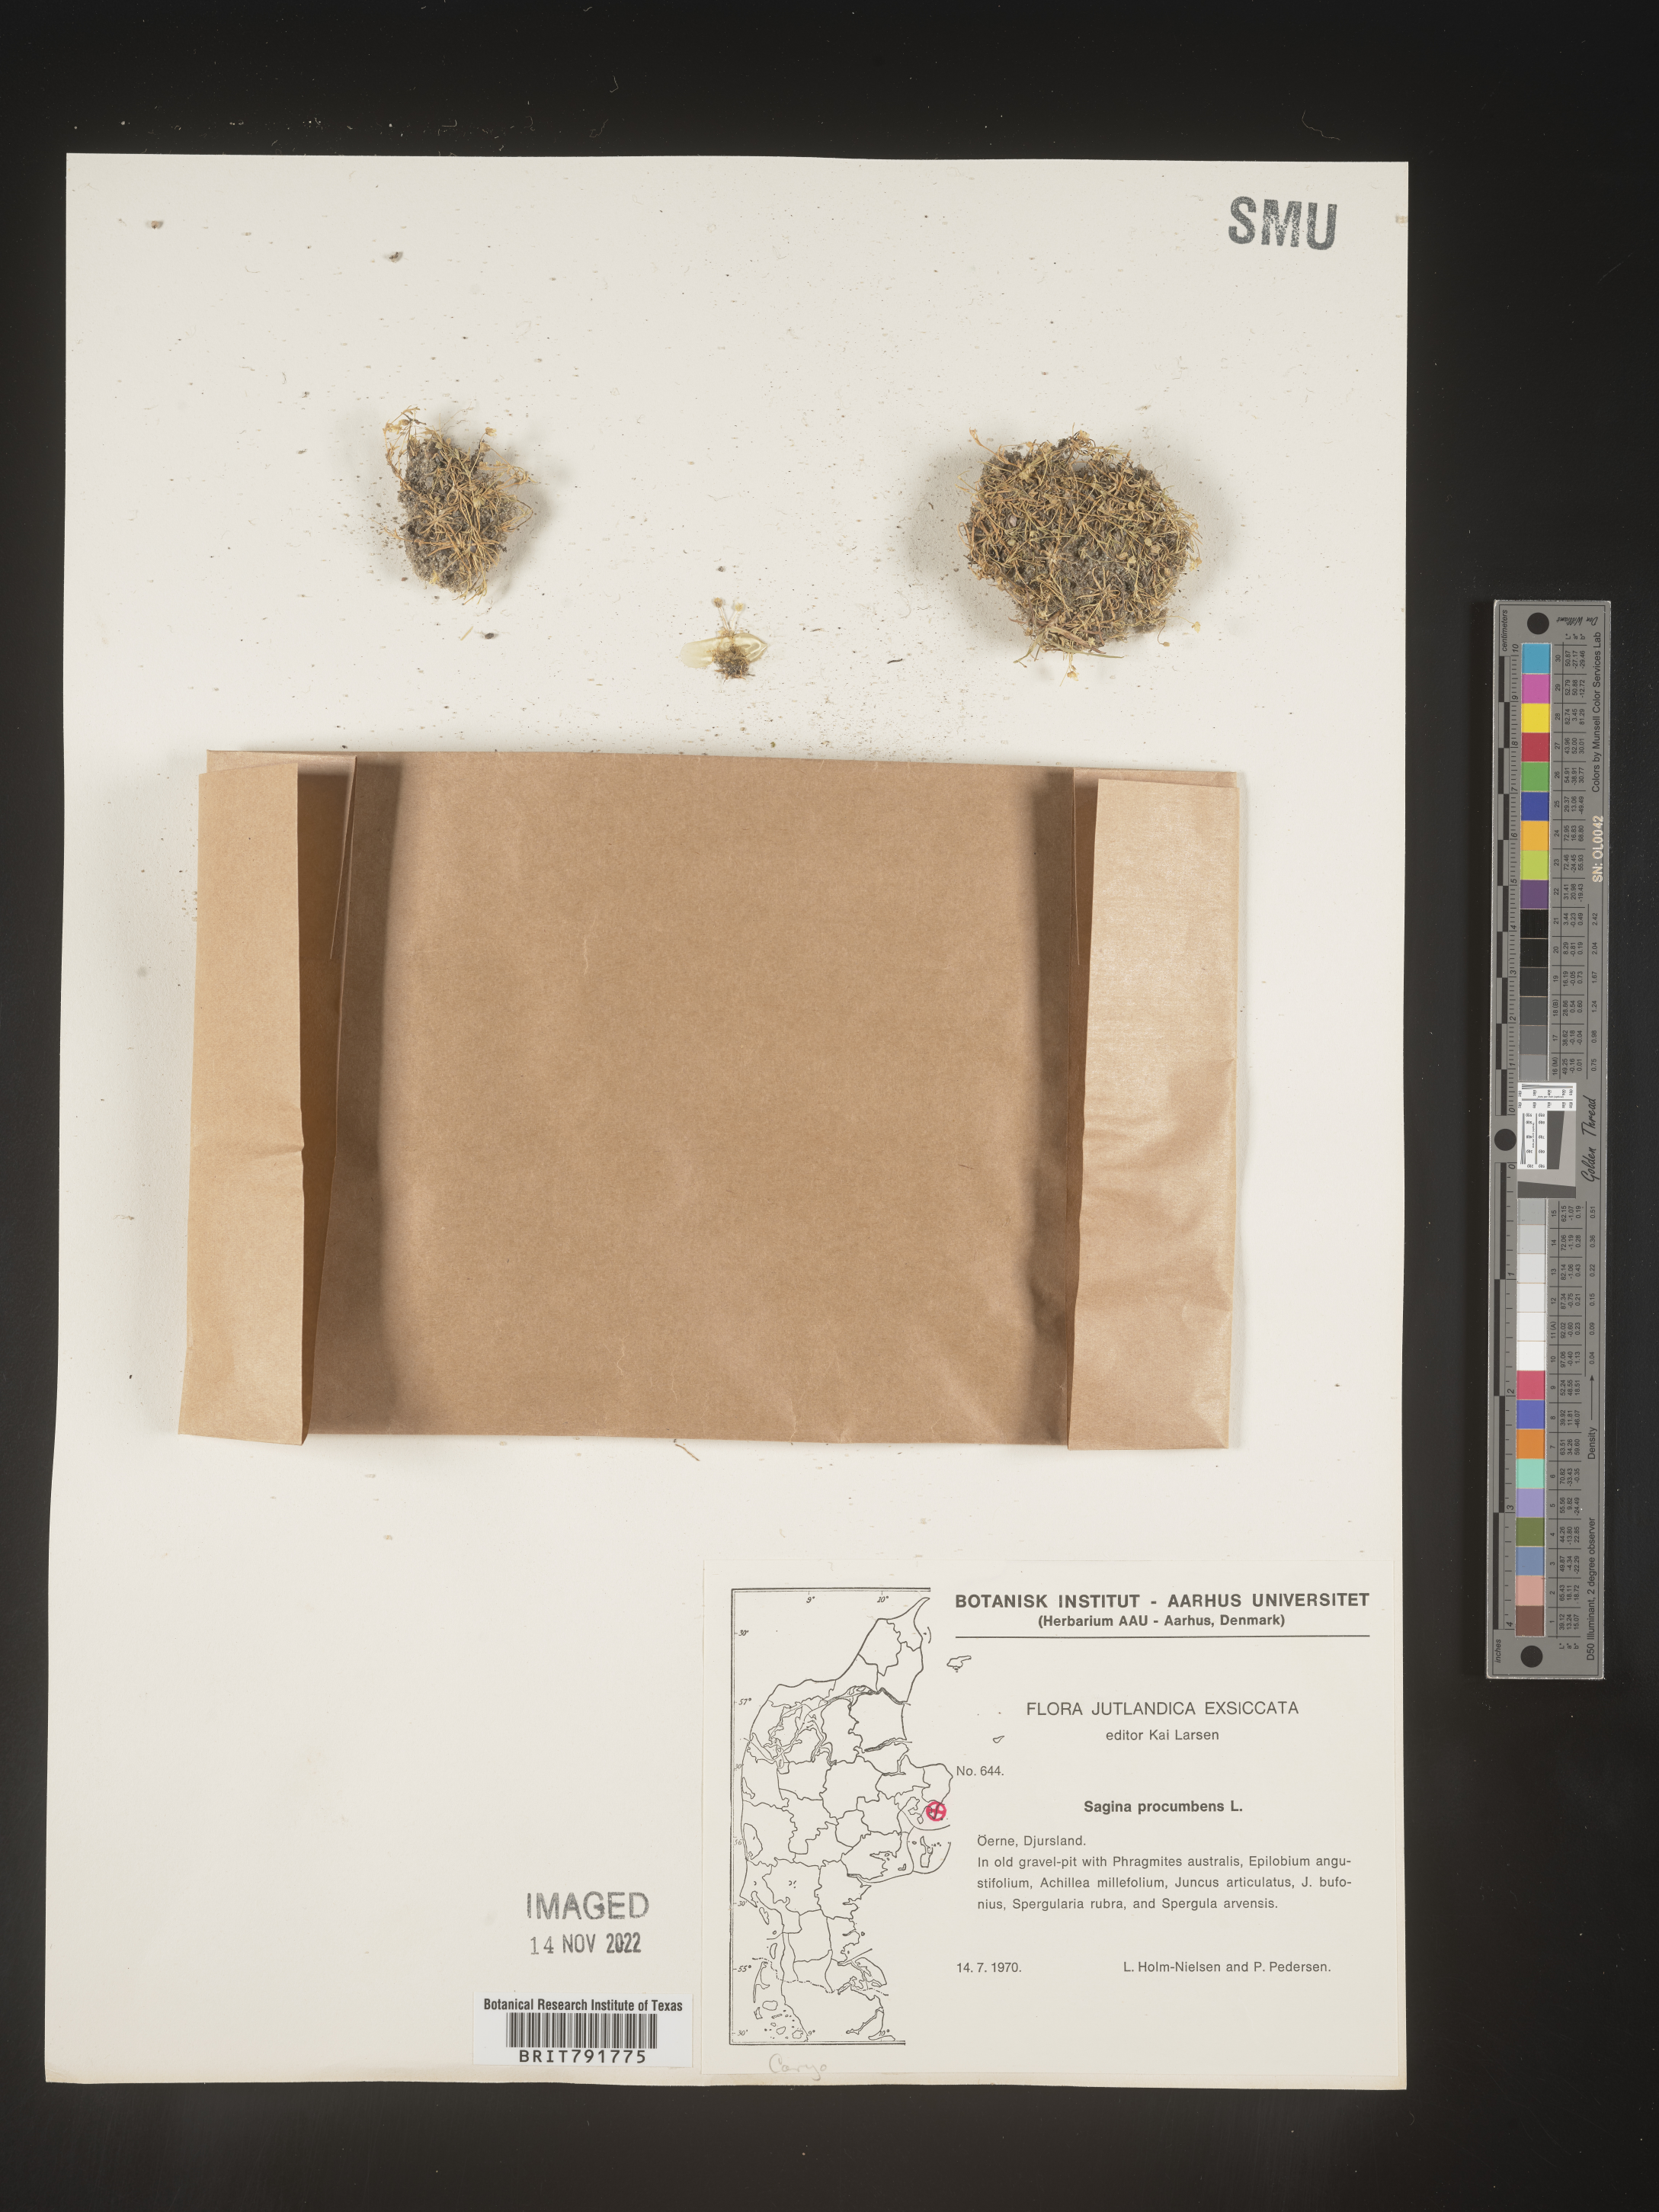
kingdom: Plantae
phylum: Tracheophyta
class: Magnoliopsida
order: Caryophyllales
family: Caryophyllaceae
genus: Sagina
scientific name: Sagina
